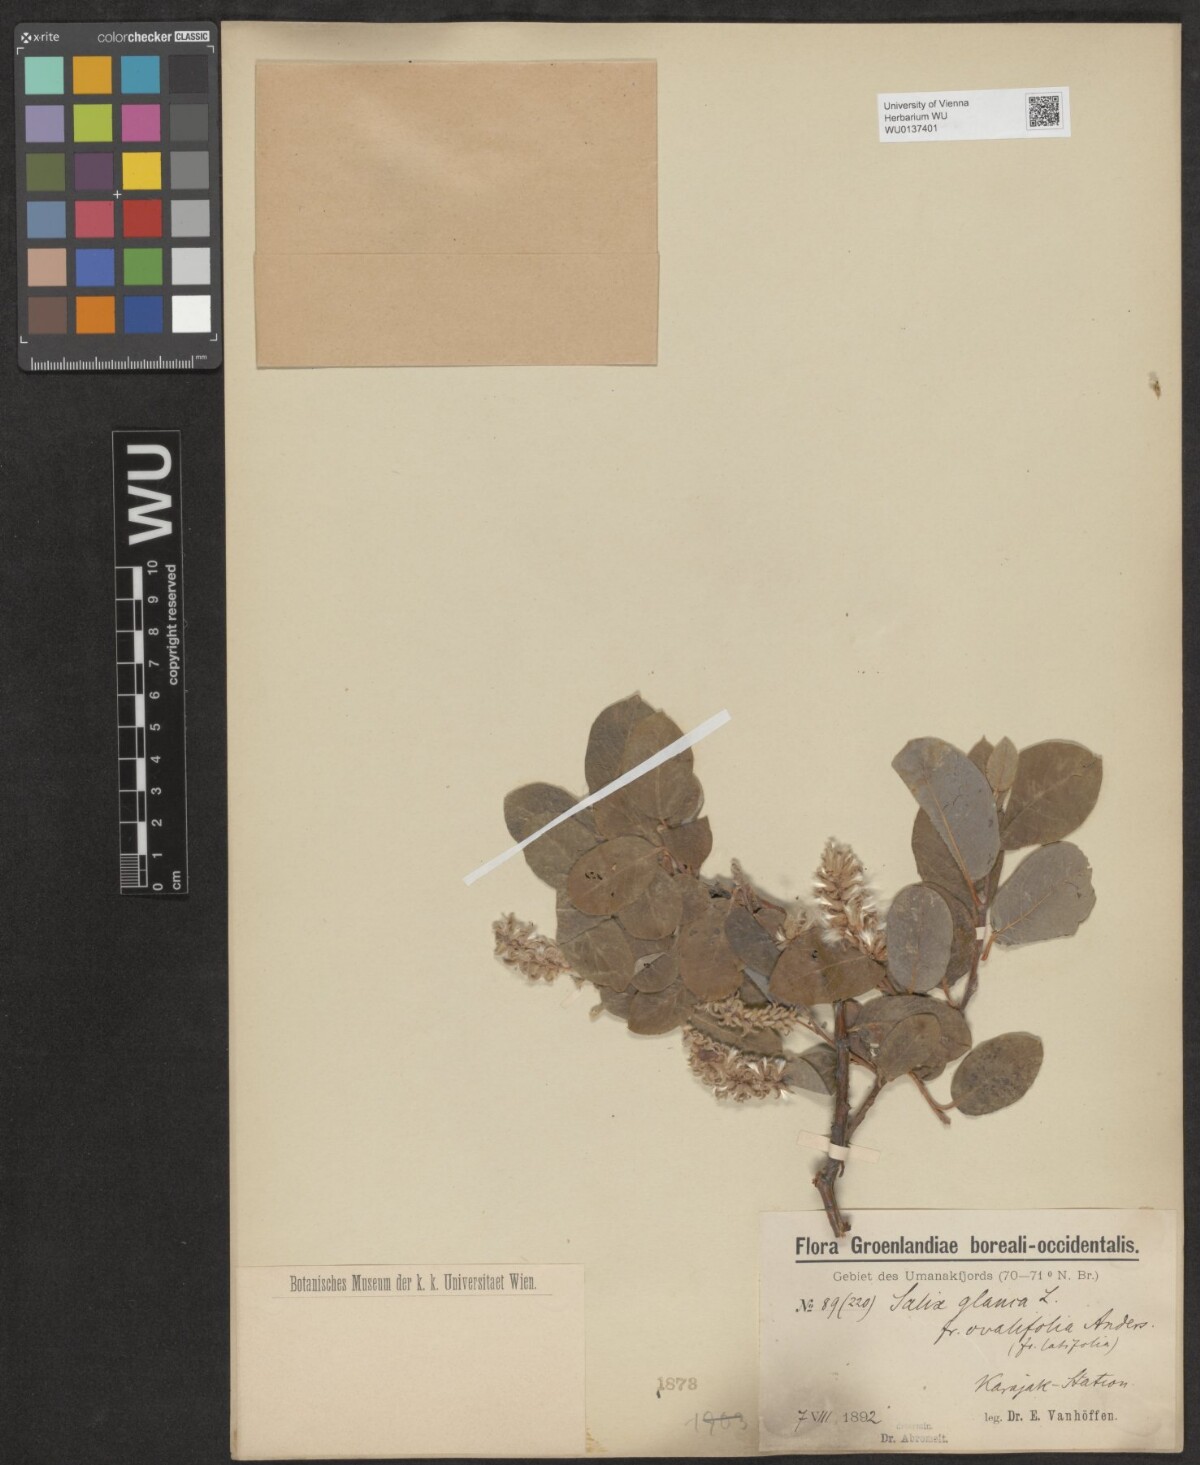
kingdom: Plantae
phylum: Tracheophyta
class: Magnoliopsida
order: Malpighiales
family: Salicaceae
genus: Salix
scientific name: Salix glauca
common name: Glaucous willow
